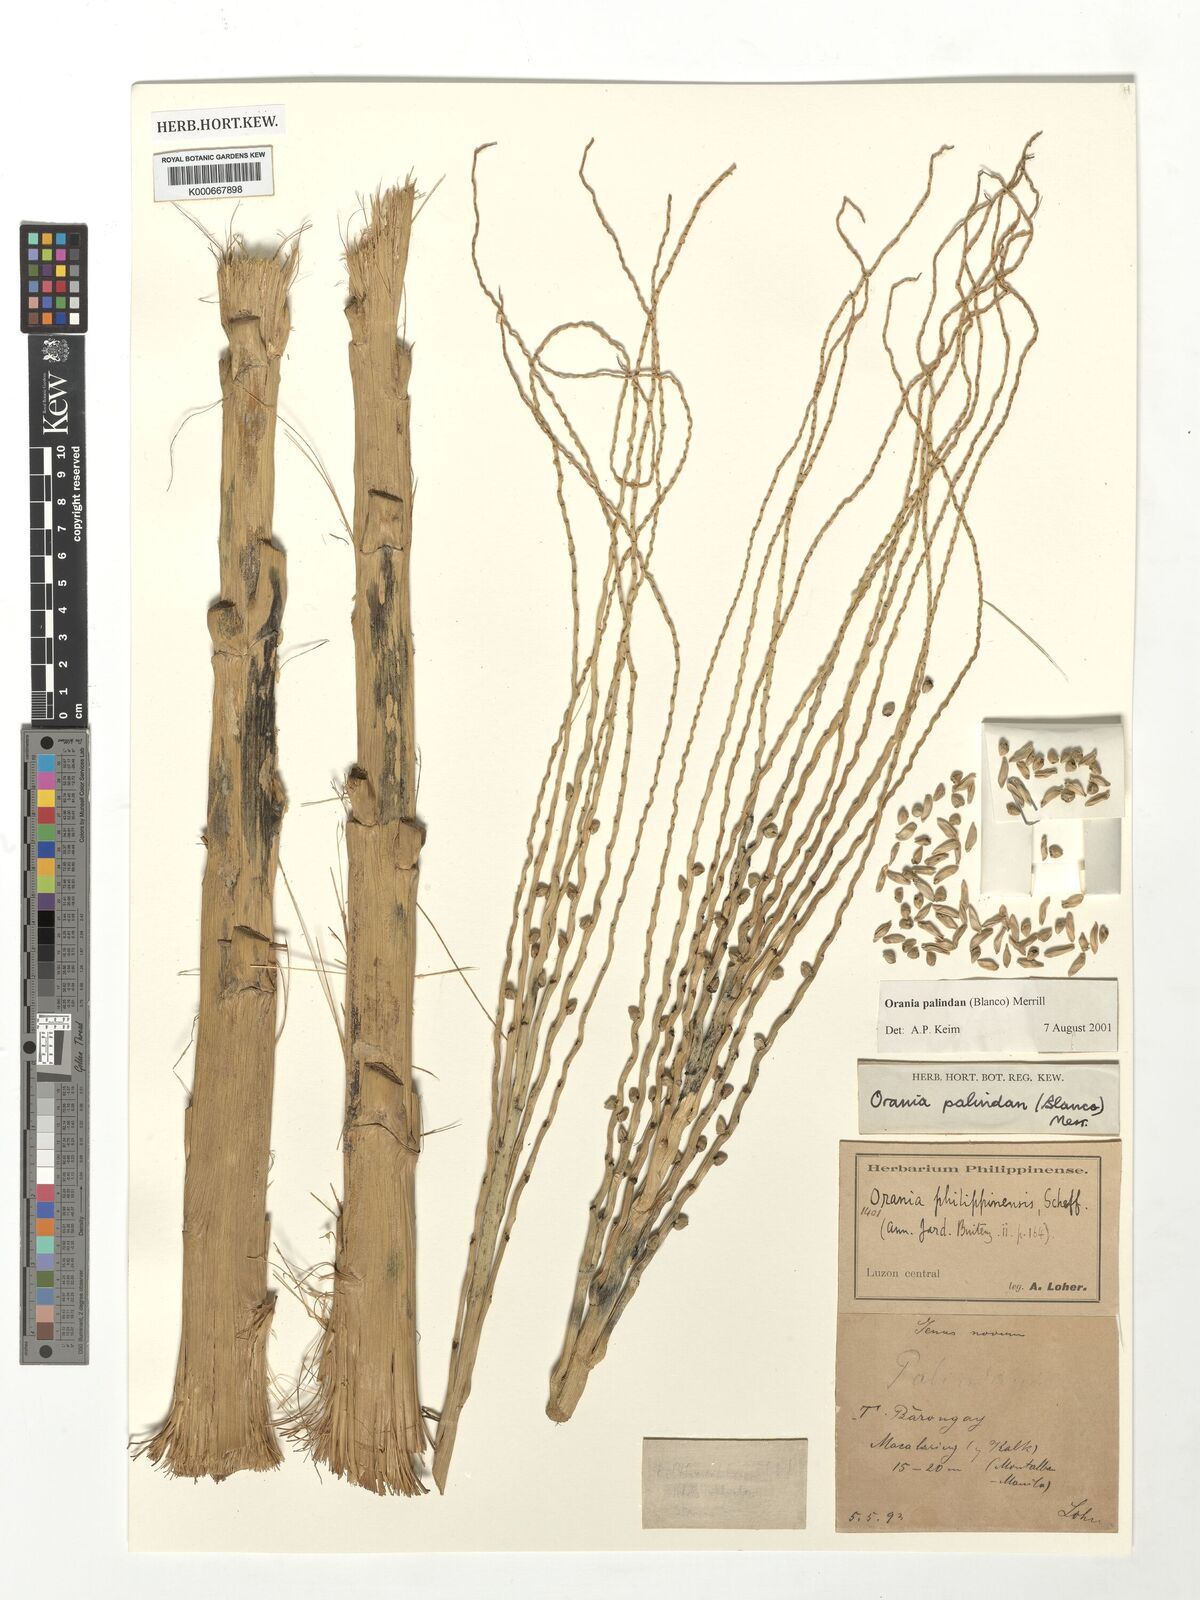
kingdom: Plantae
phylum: Tracheophyta
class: Liliopsida
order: Arecales
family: Arecaceae
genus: Orania
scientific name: Orania palindan
